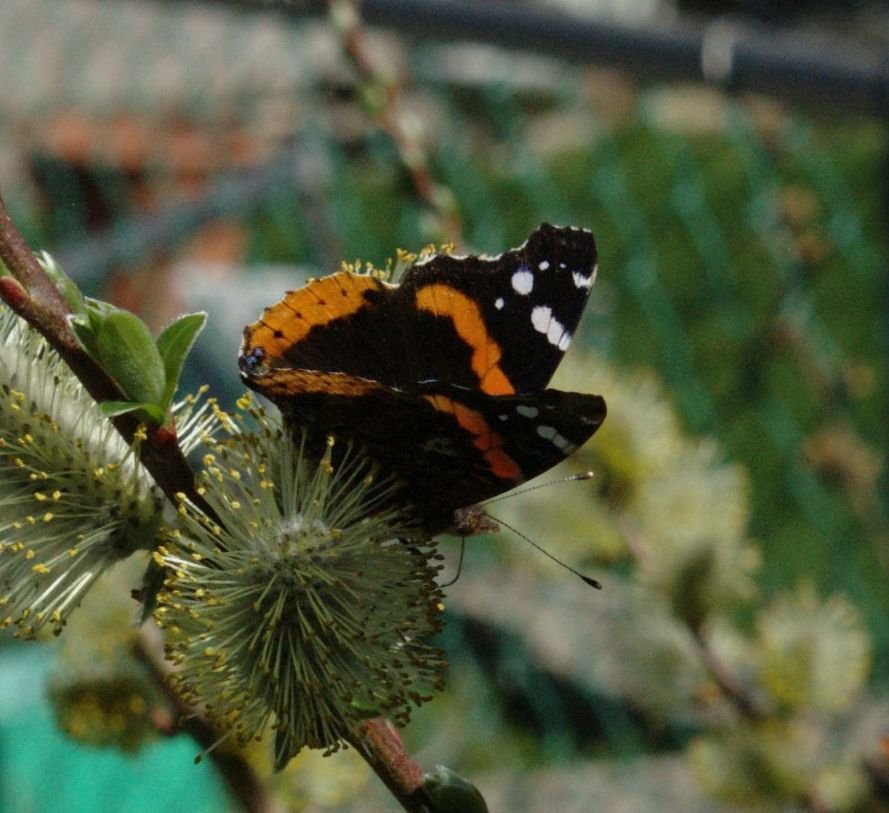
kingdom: Animalia
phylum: Arthropoda
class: Insecta
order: Lepidoptera
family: Nymphalidae
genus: Vanessa
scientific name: Vanessa atalanta
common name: Red Admiral
